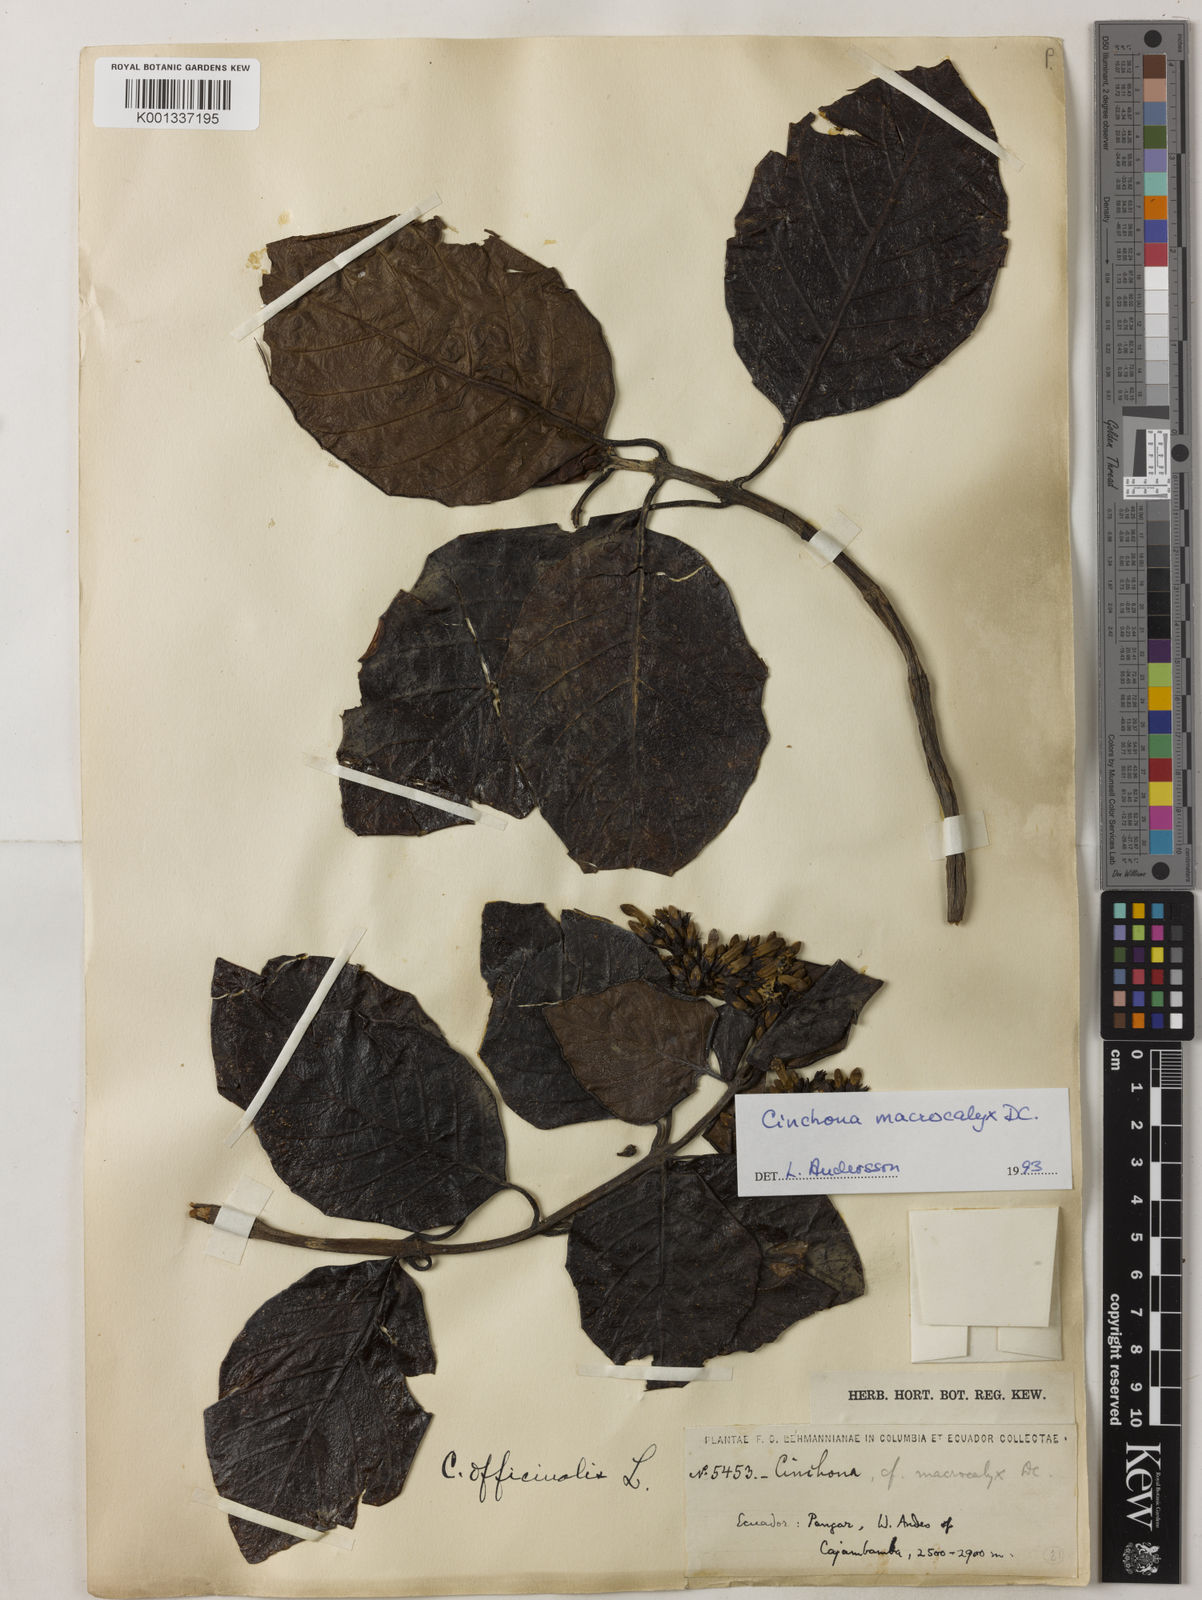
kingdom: Plantae
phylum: Tracheophyta
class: Magnoliopsida
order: Gentianales
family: Rubiaceae
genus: Cinchona
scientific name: Cinchona macrocalyx
